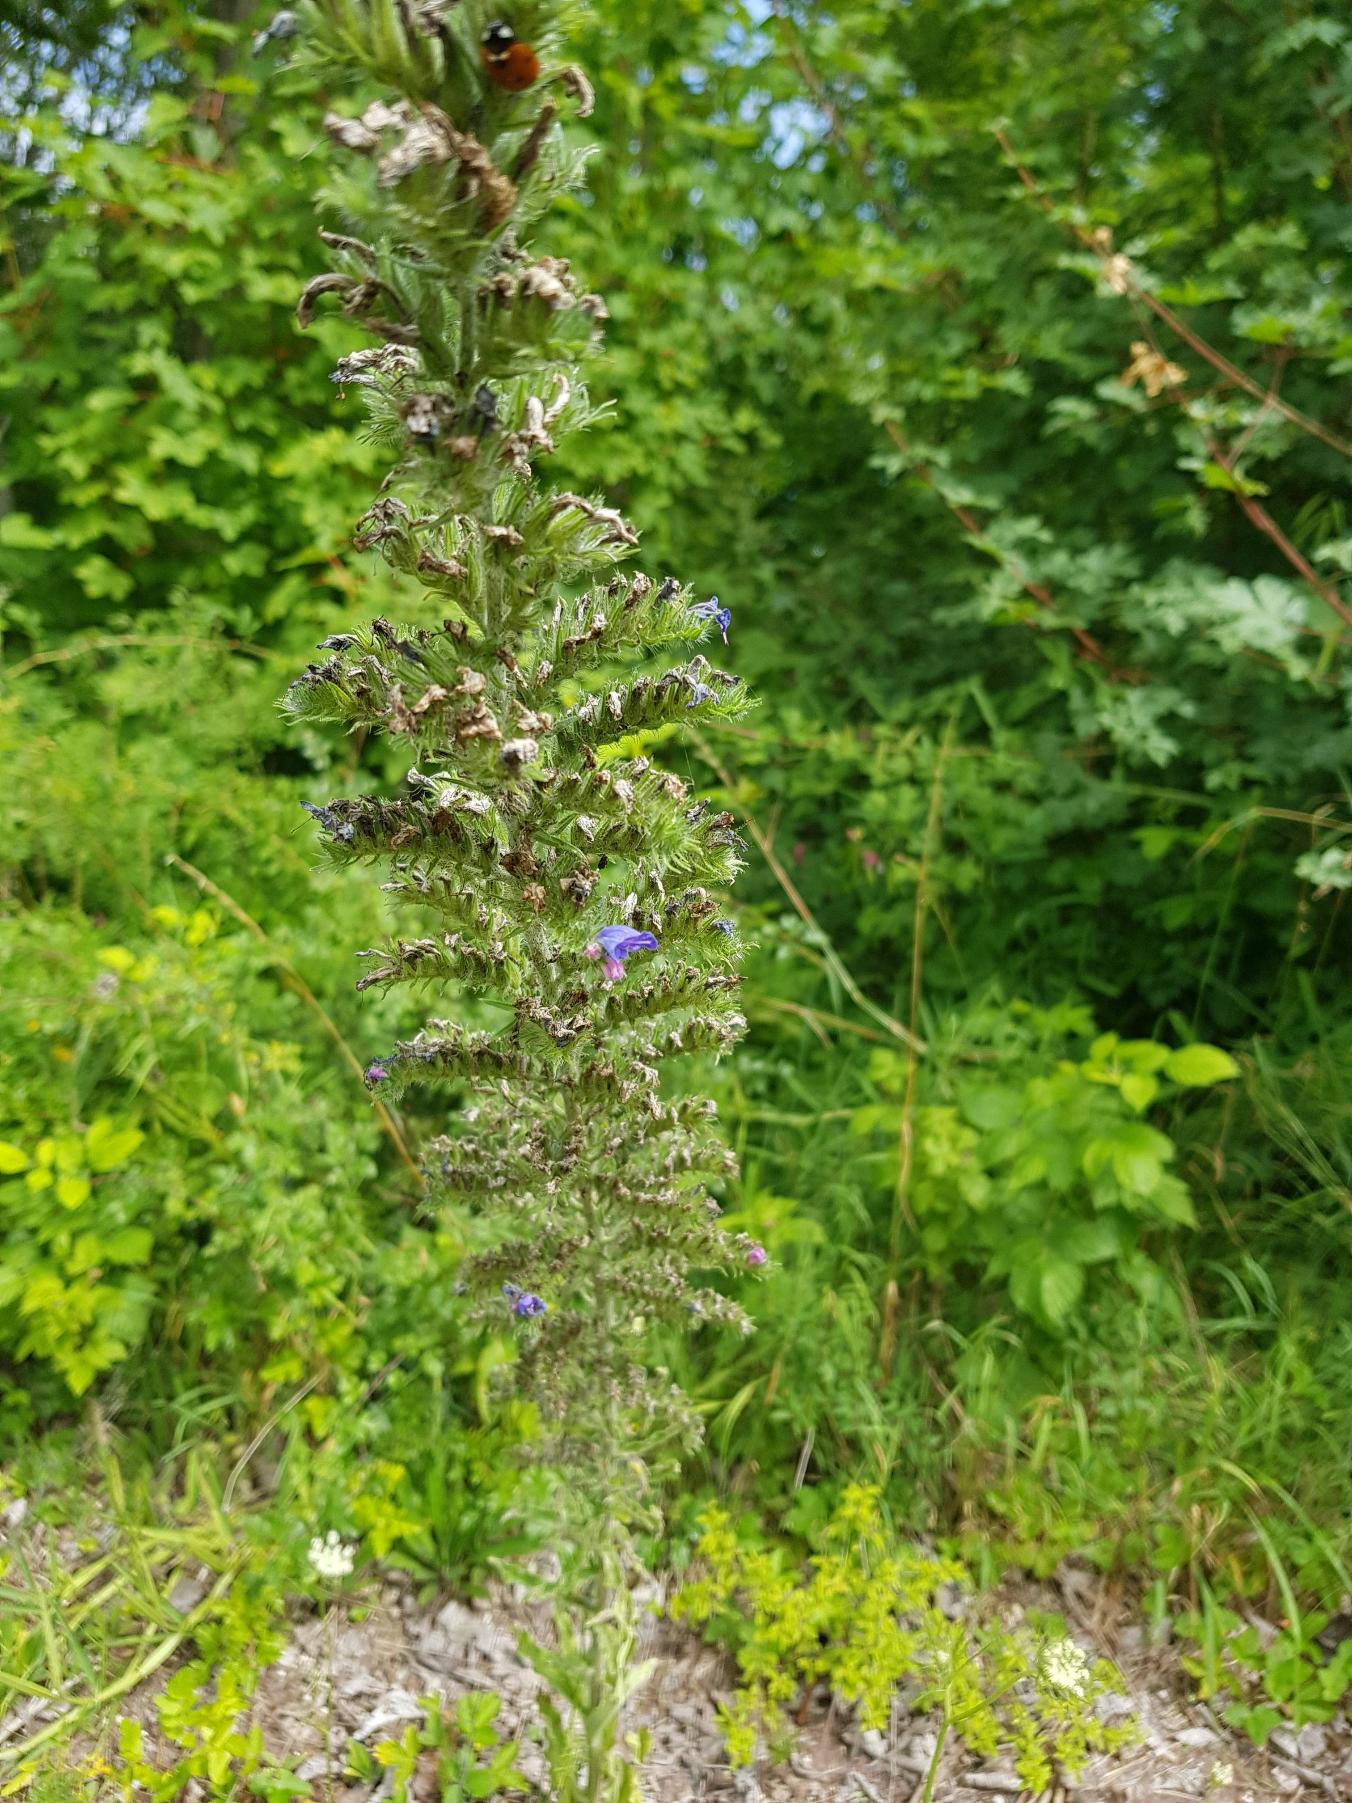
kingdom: Plantae
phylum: Tracheophyta
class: Magnoliopsida
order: Boraginales
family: Boraginaceae
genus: Echium
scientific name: Echium vulgare
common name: Slangehoved
